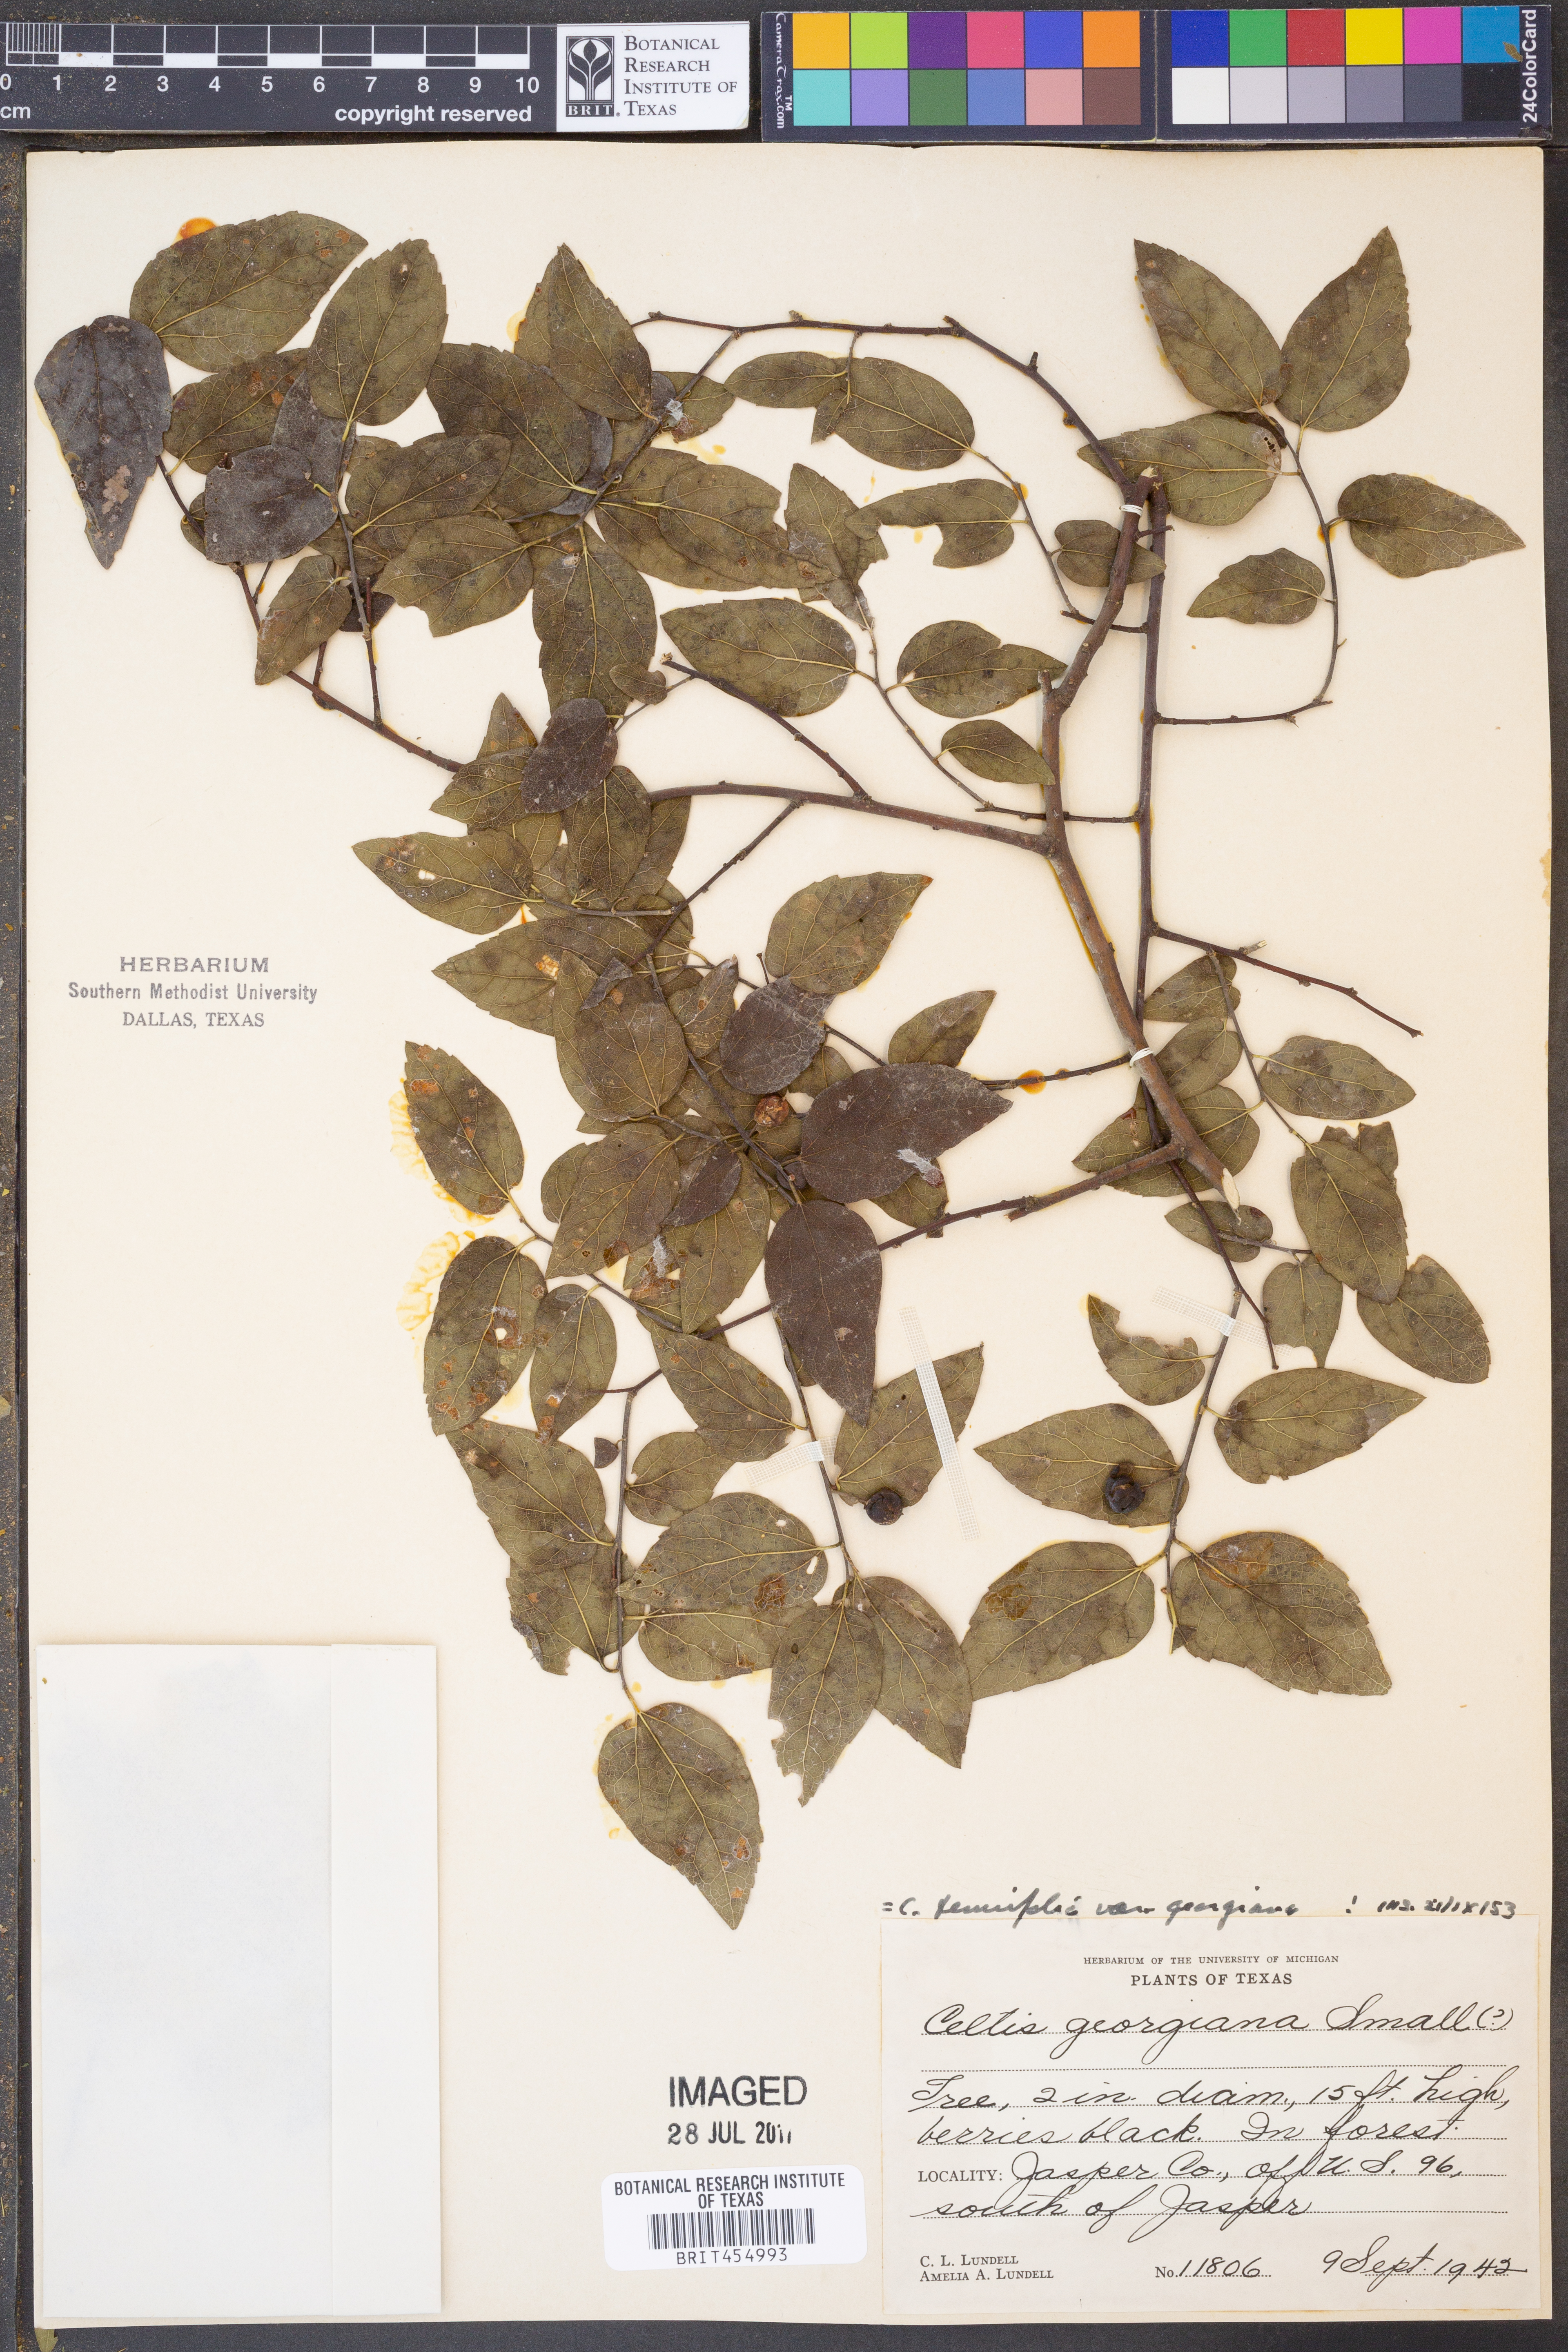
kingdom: Plantae
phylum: Tracheophyta
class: Magnoliopsida
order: Rosales
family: Cannabaceae
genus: Celtis
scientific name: Celtis tenuifolia
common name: Georgia hackberry
